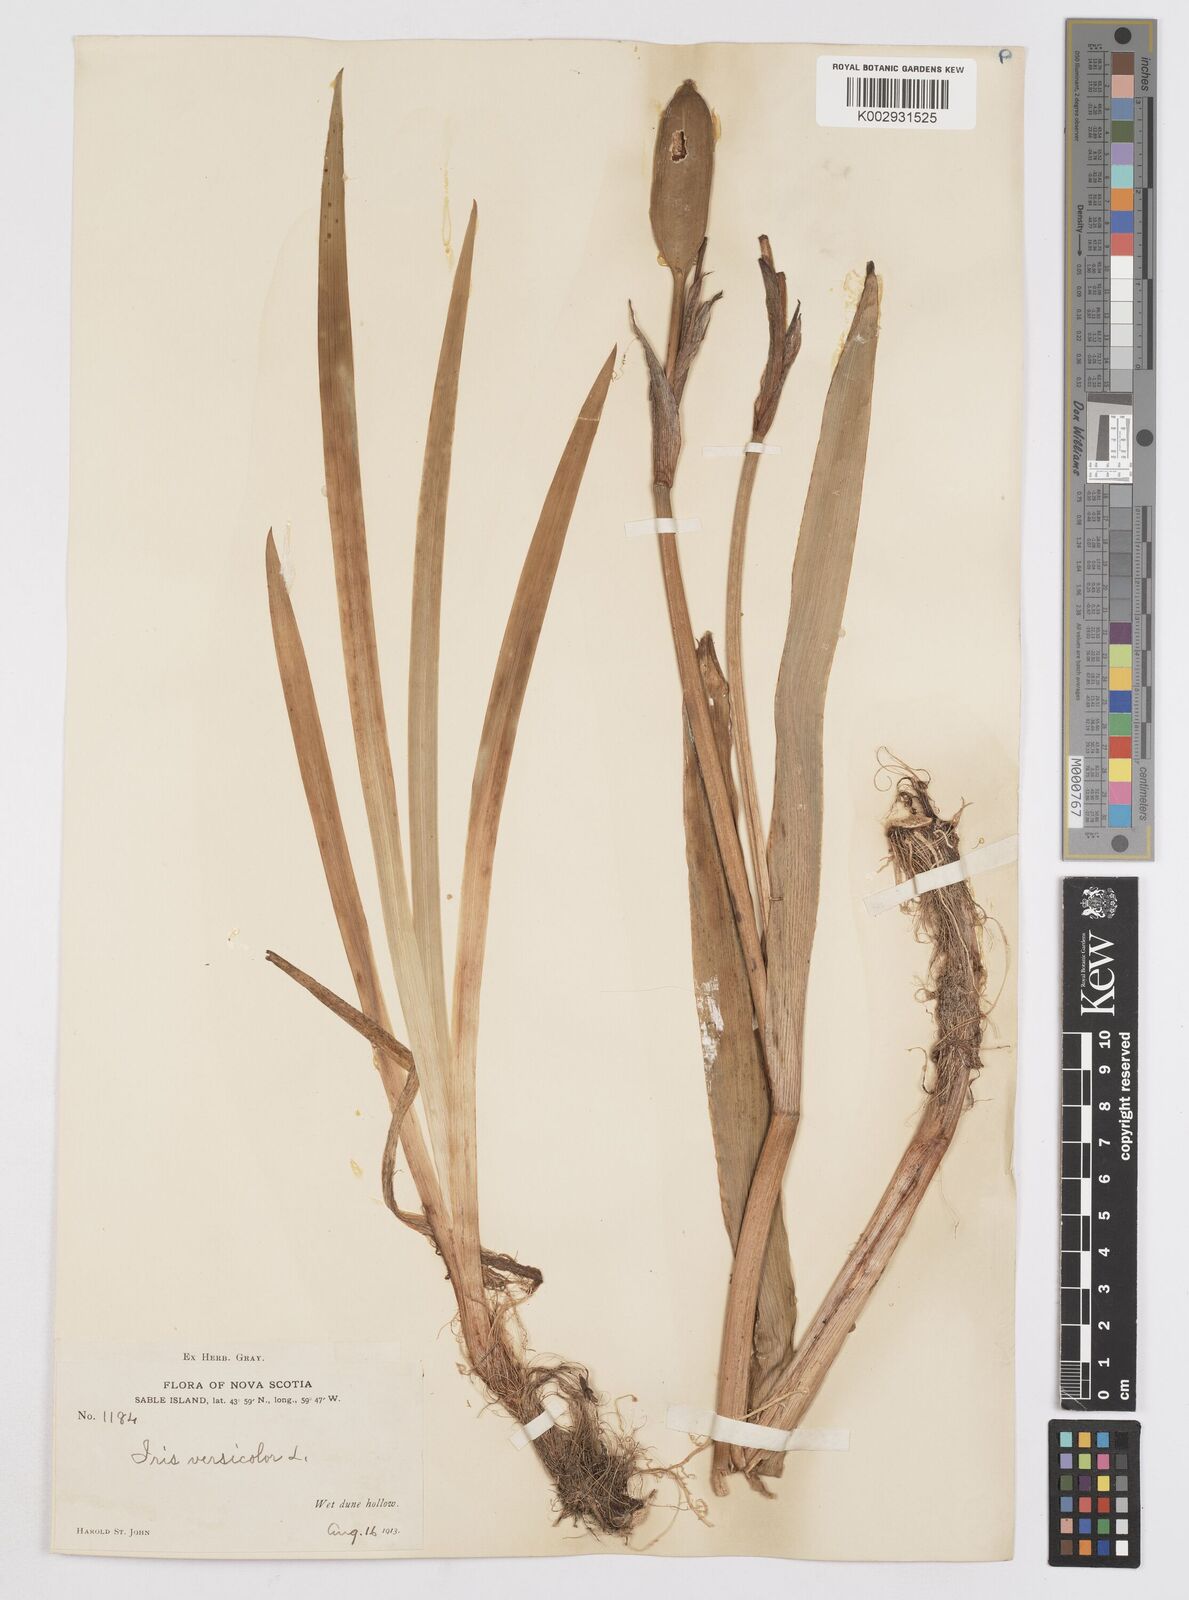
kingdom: Plantae
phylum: Tracheophyta
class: Liliopsida
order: Asparagales
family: Iridaceae
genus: Iris
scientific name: Iris versicolor
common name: Purple iris
